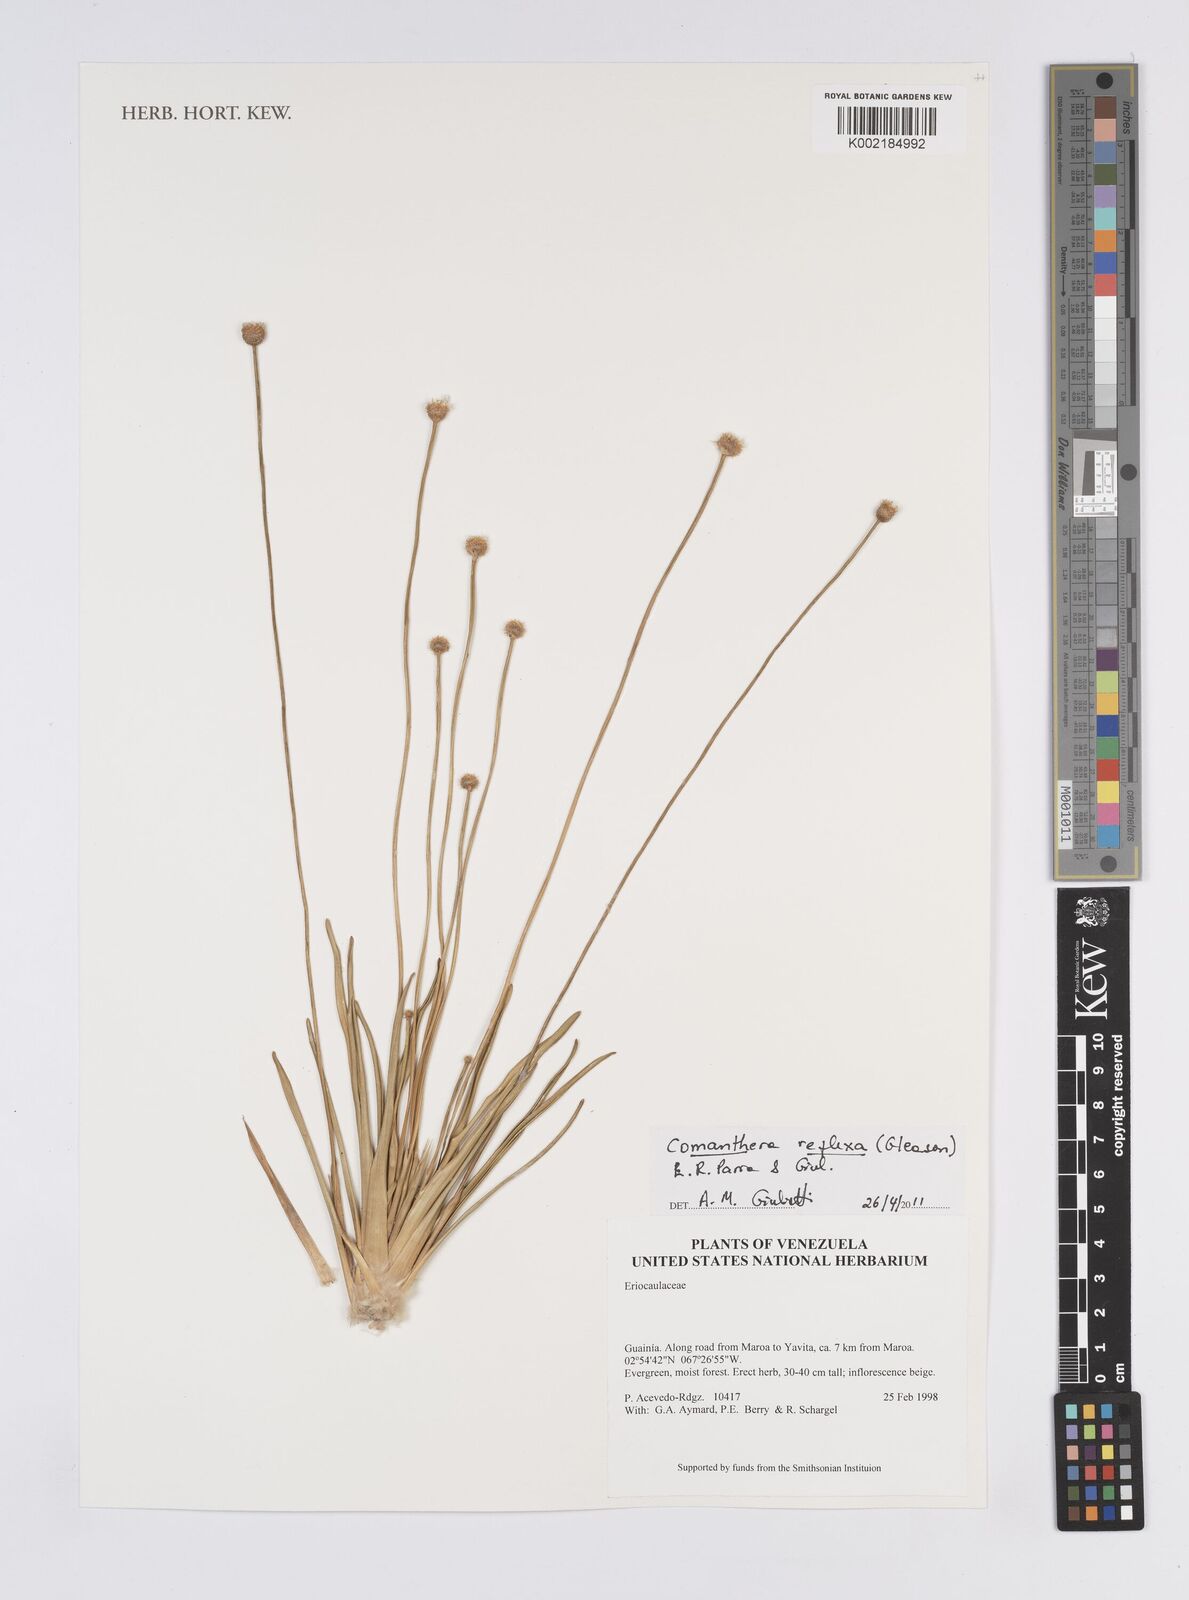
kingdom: Plantae
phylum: Tracheophyta
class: Liliopsida
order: Poales
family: Eriocaulaceae
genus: Comanthera
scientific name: Comanthera reflexa
